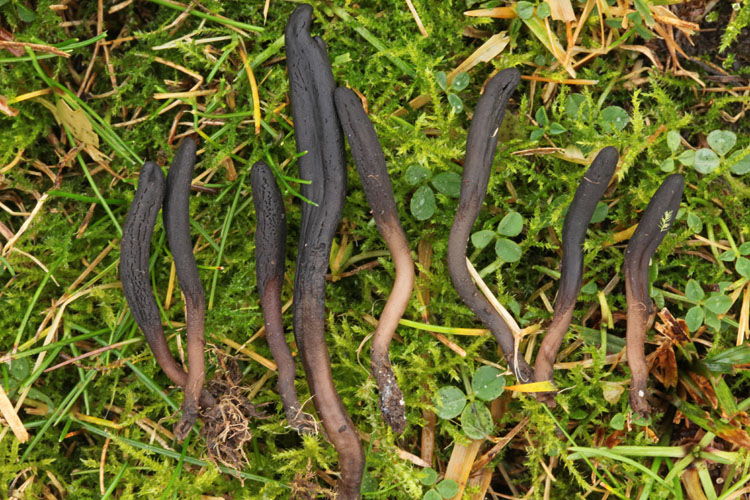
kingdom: Fungi
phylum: Ascomycota
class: Geoglossomycetes
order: Geoglossales
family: Geoglossaceae
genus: Geoglossum
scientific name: Geoglossum fallax
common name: småskællet jordtunge
